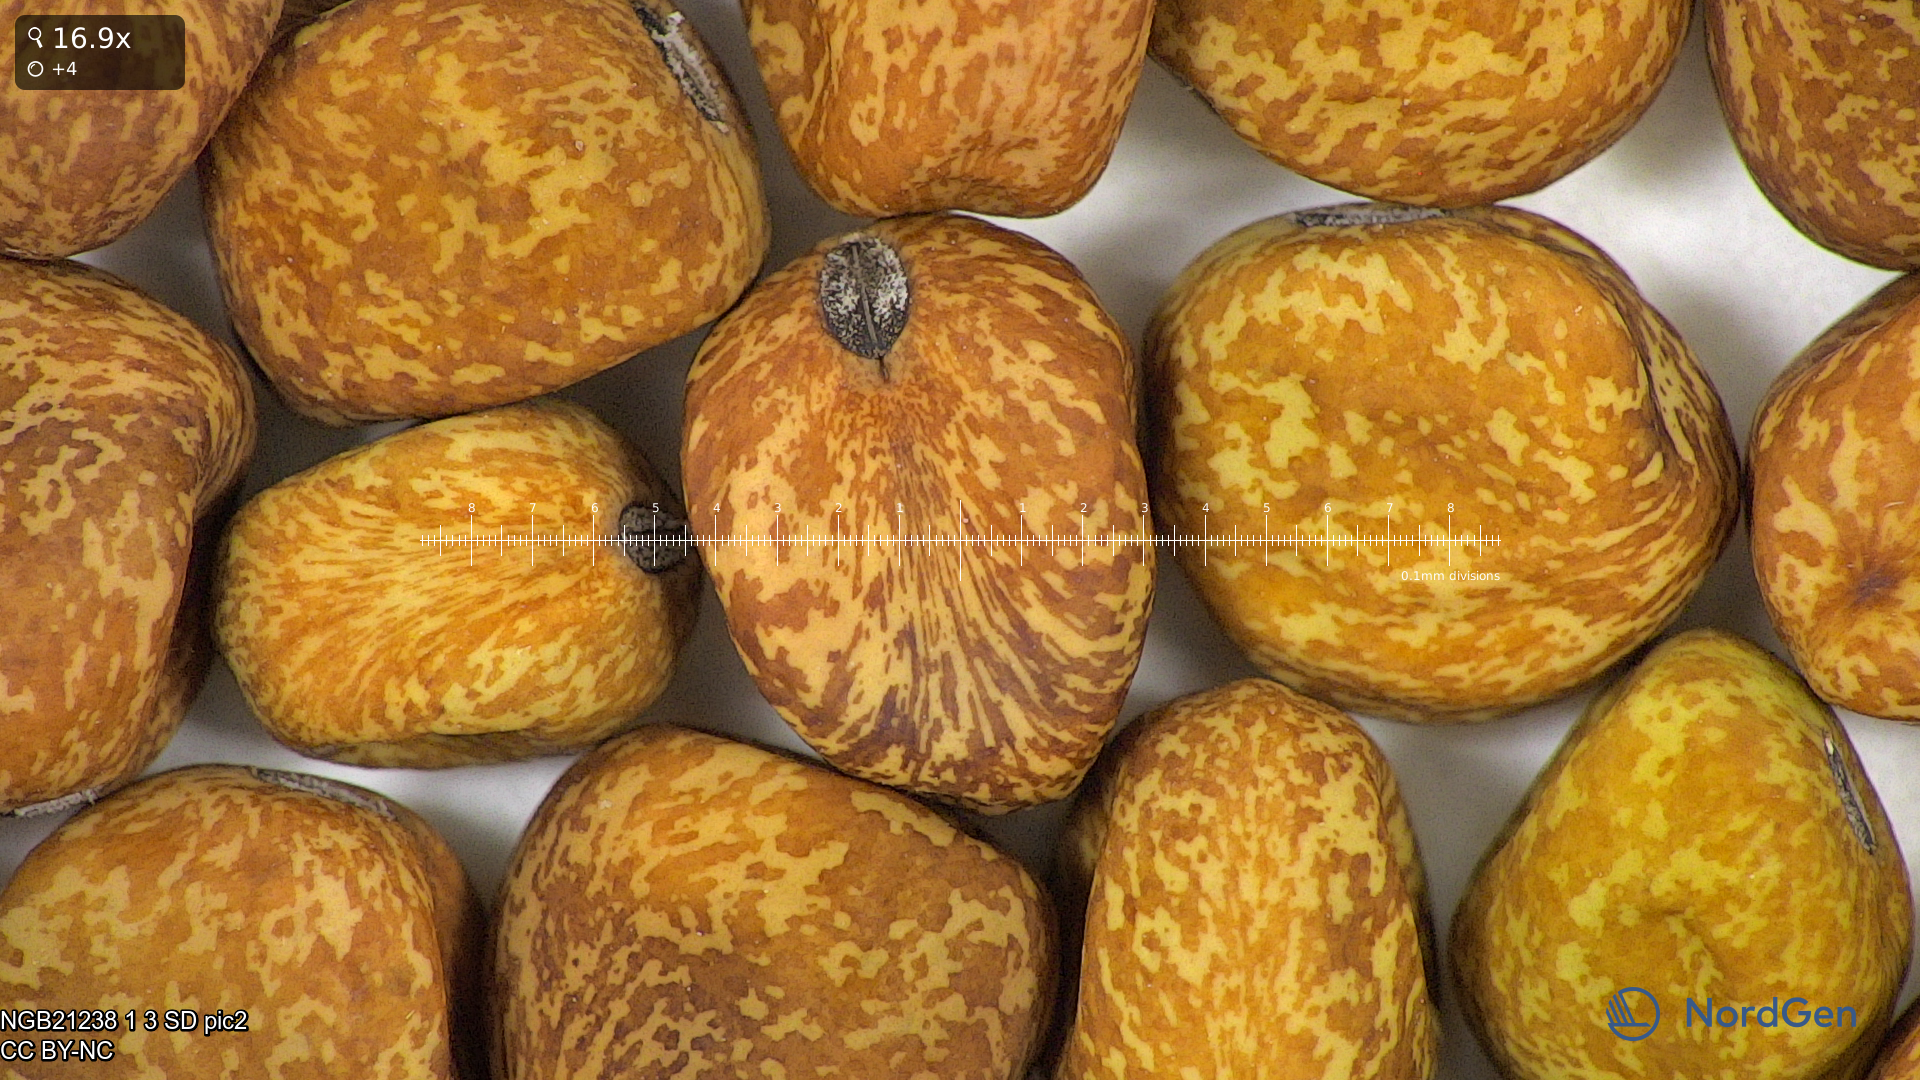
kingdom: Plantae
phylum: Tracheophyta
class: Magnoliopsida
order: Fabales
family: Fabaceae
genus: Lathyrus
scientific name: Lathyrus oleraceus
